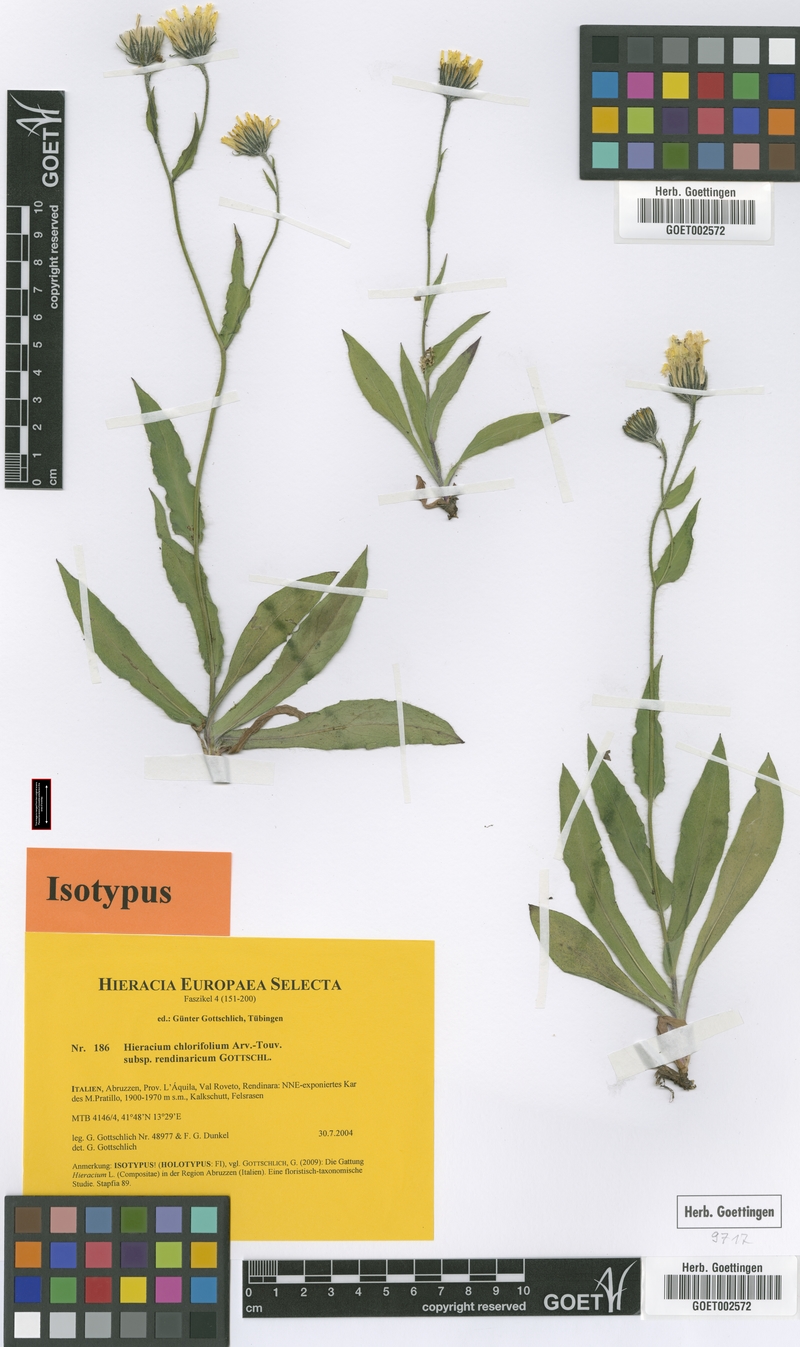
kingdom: Plantae
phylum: Tracheophyta
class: Magnoliopsida
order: Asterales
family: Asteraceae
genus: Hieracium
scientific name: Hieracium chlorifolium
